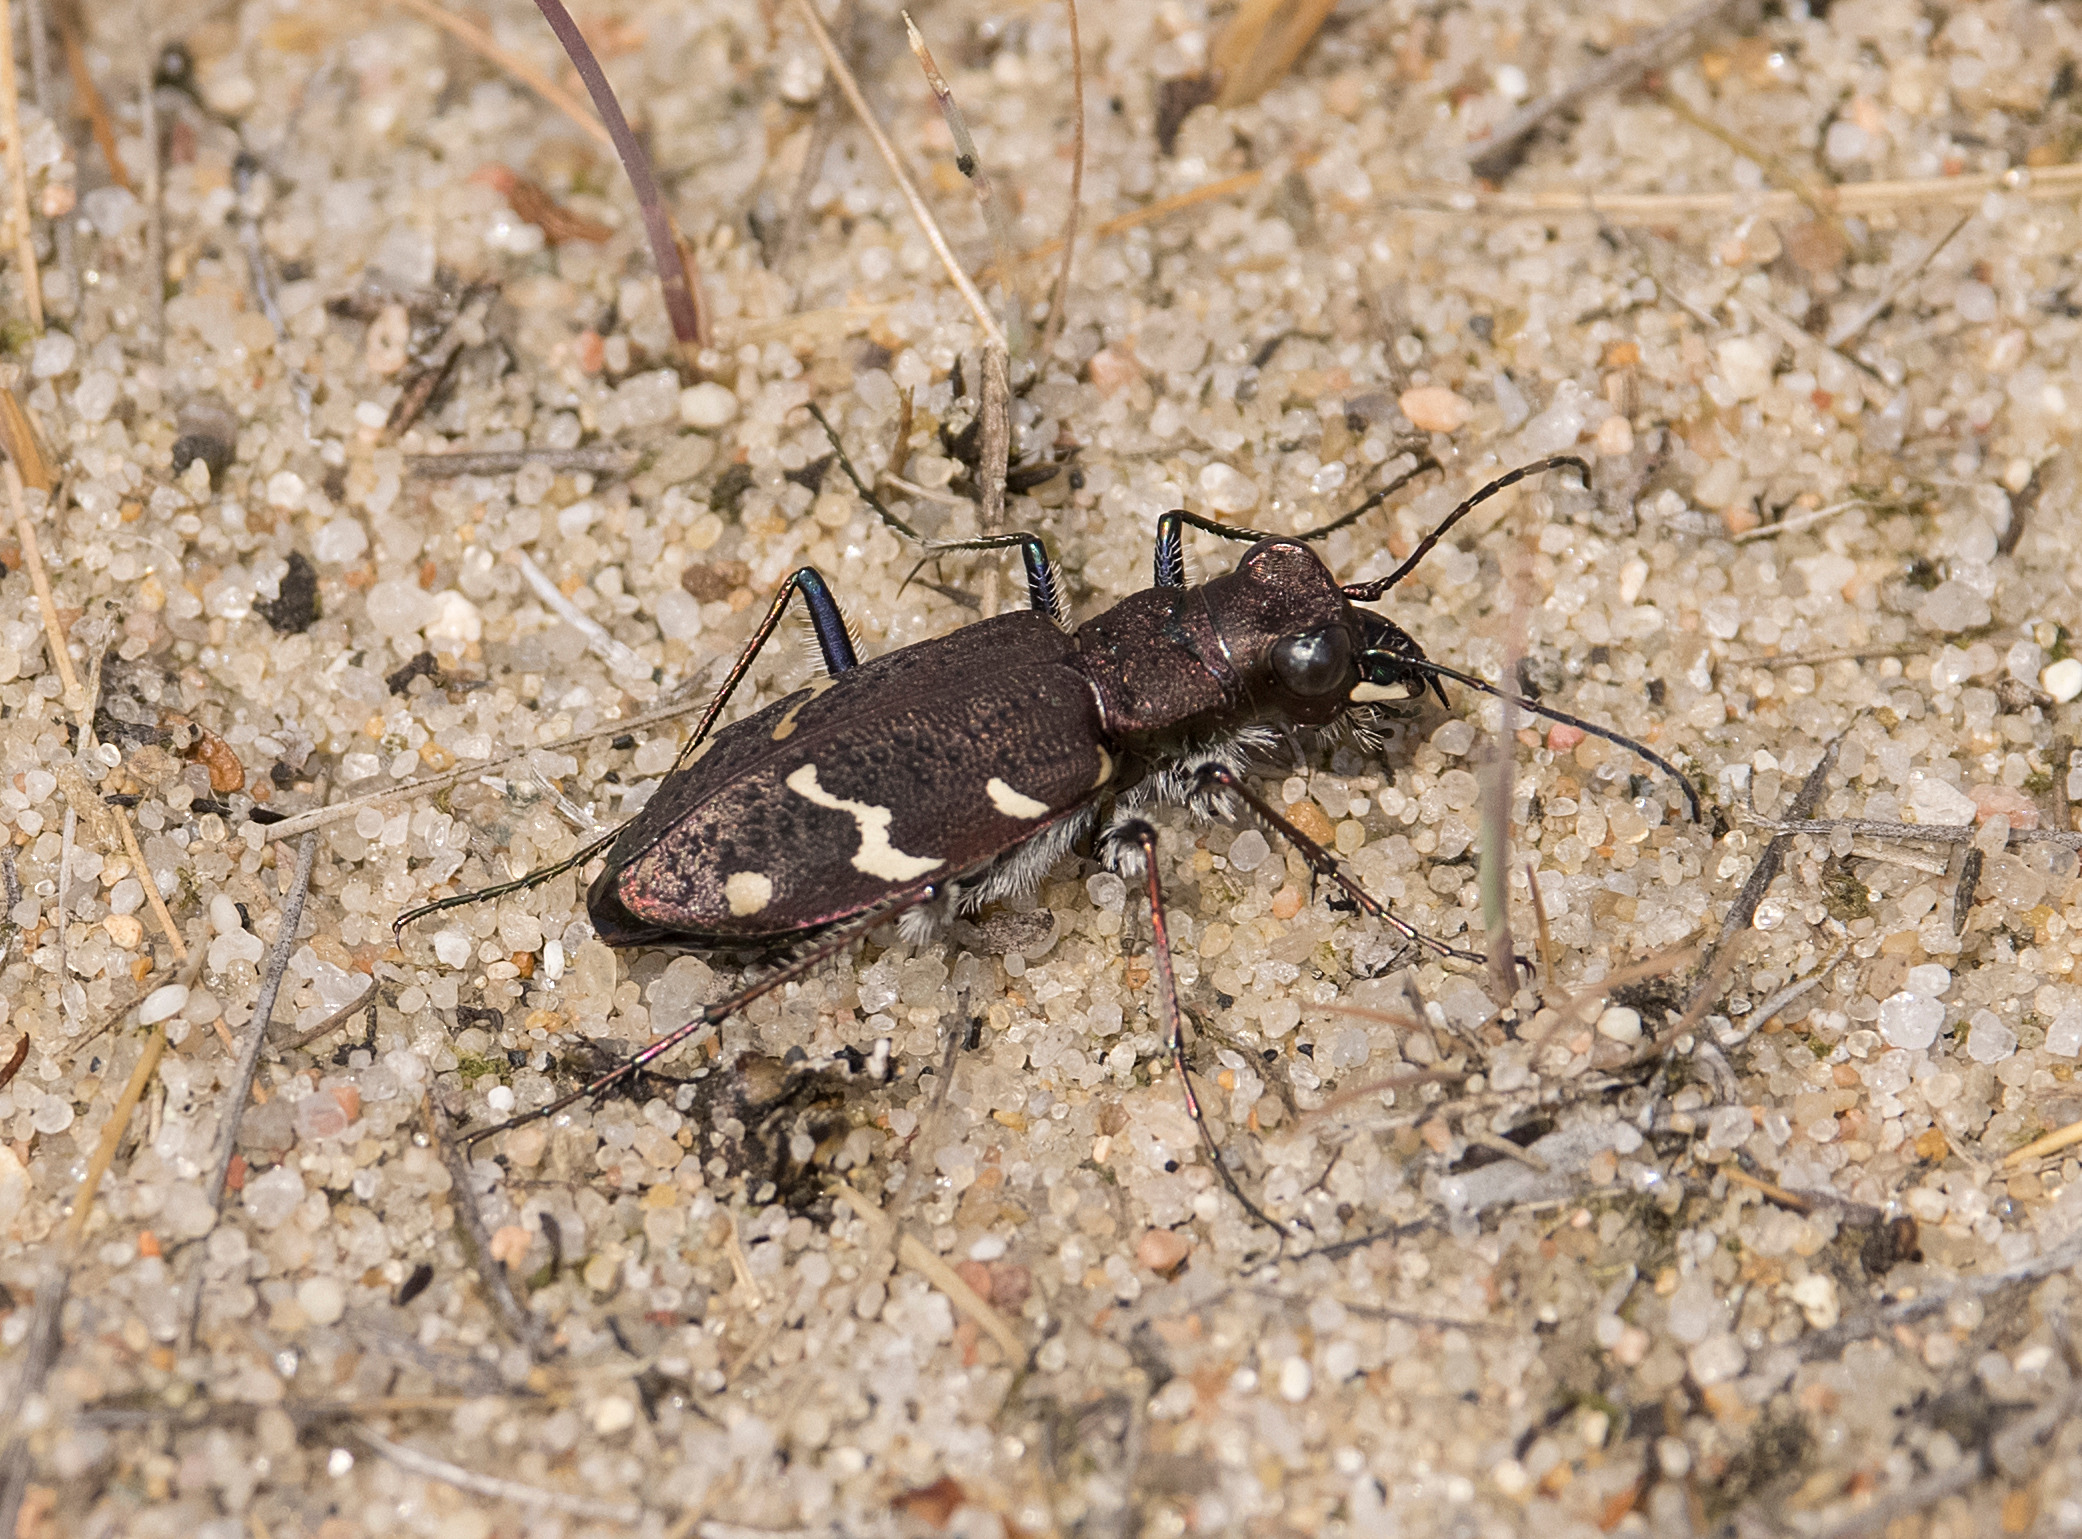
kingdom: Animalia
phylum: Arthropoda
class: Insecta
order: Coleoptera
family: Carabidae
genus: Cicindela
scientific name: Cicindela sylvatica
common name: Stor sandspringer
